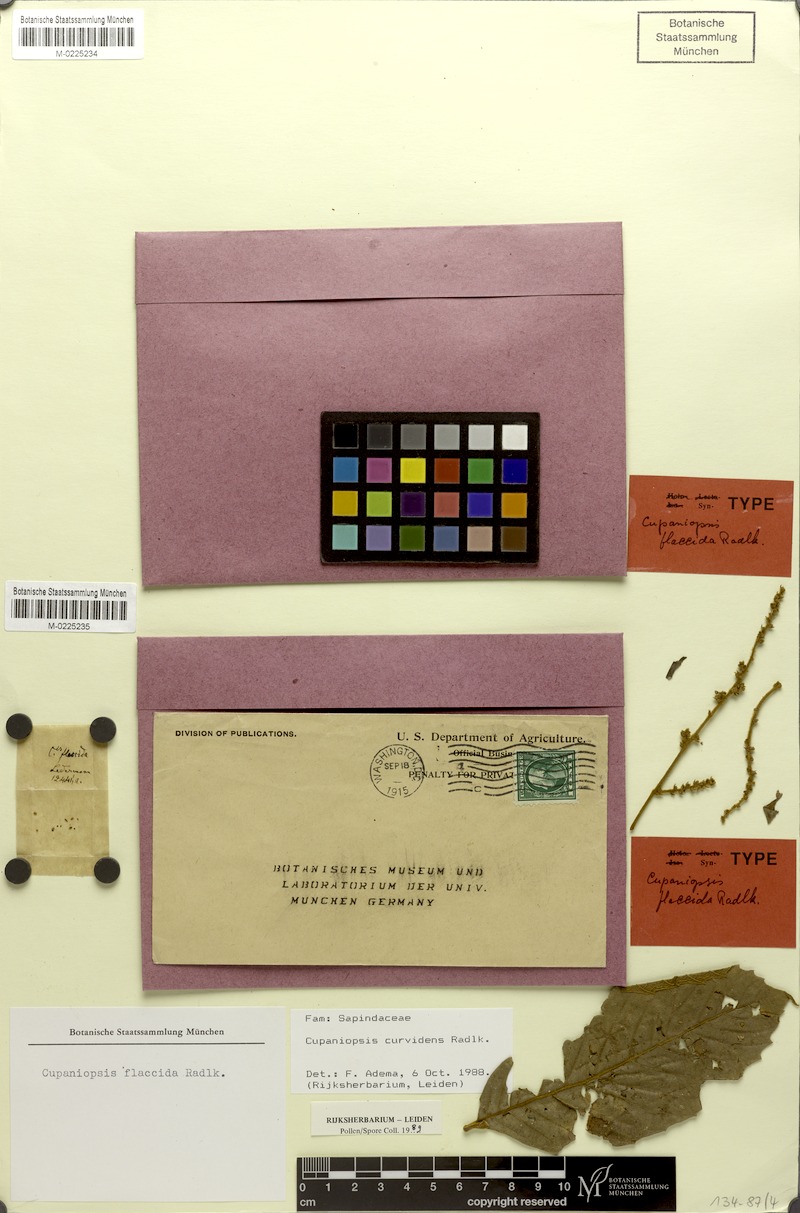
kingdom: Plantae
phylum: Tracheophyta
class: Magnoliopsida
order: Sapindales
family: Sapindaceae
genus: Cupaniopsis
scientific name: Cupaniopsis curvidens
